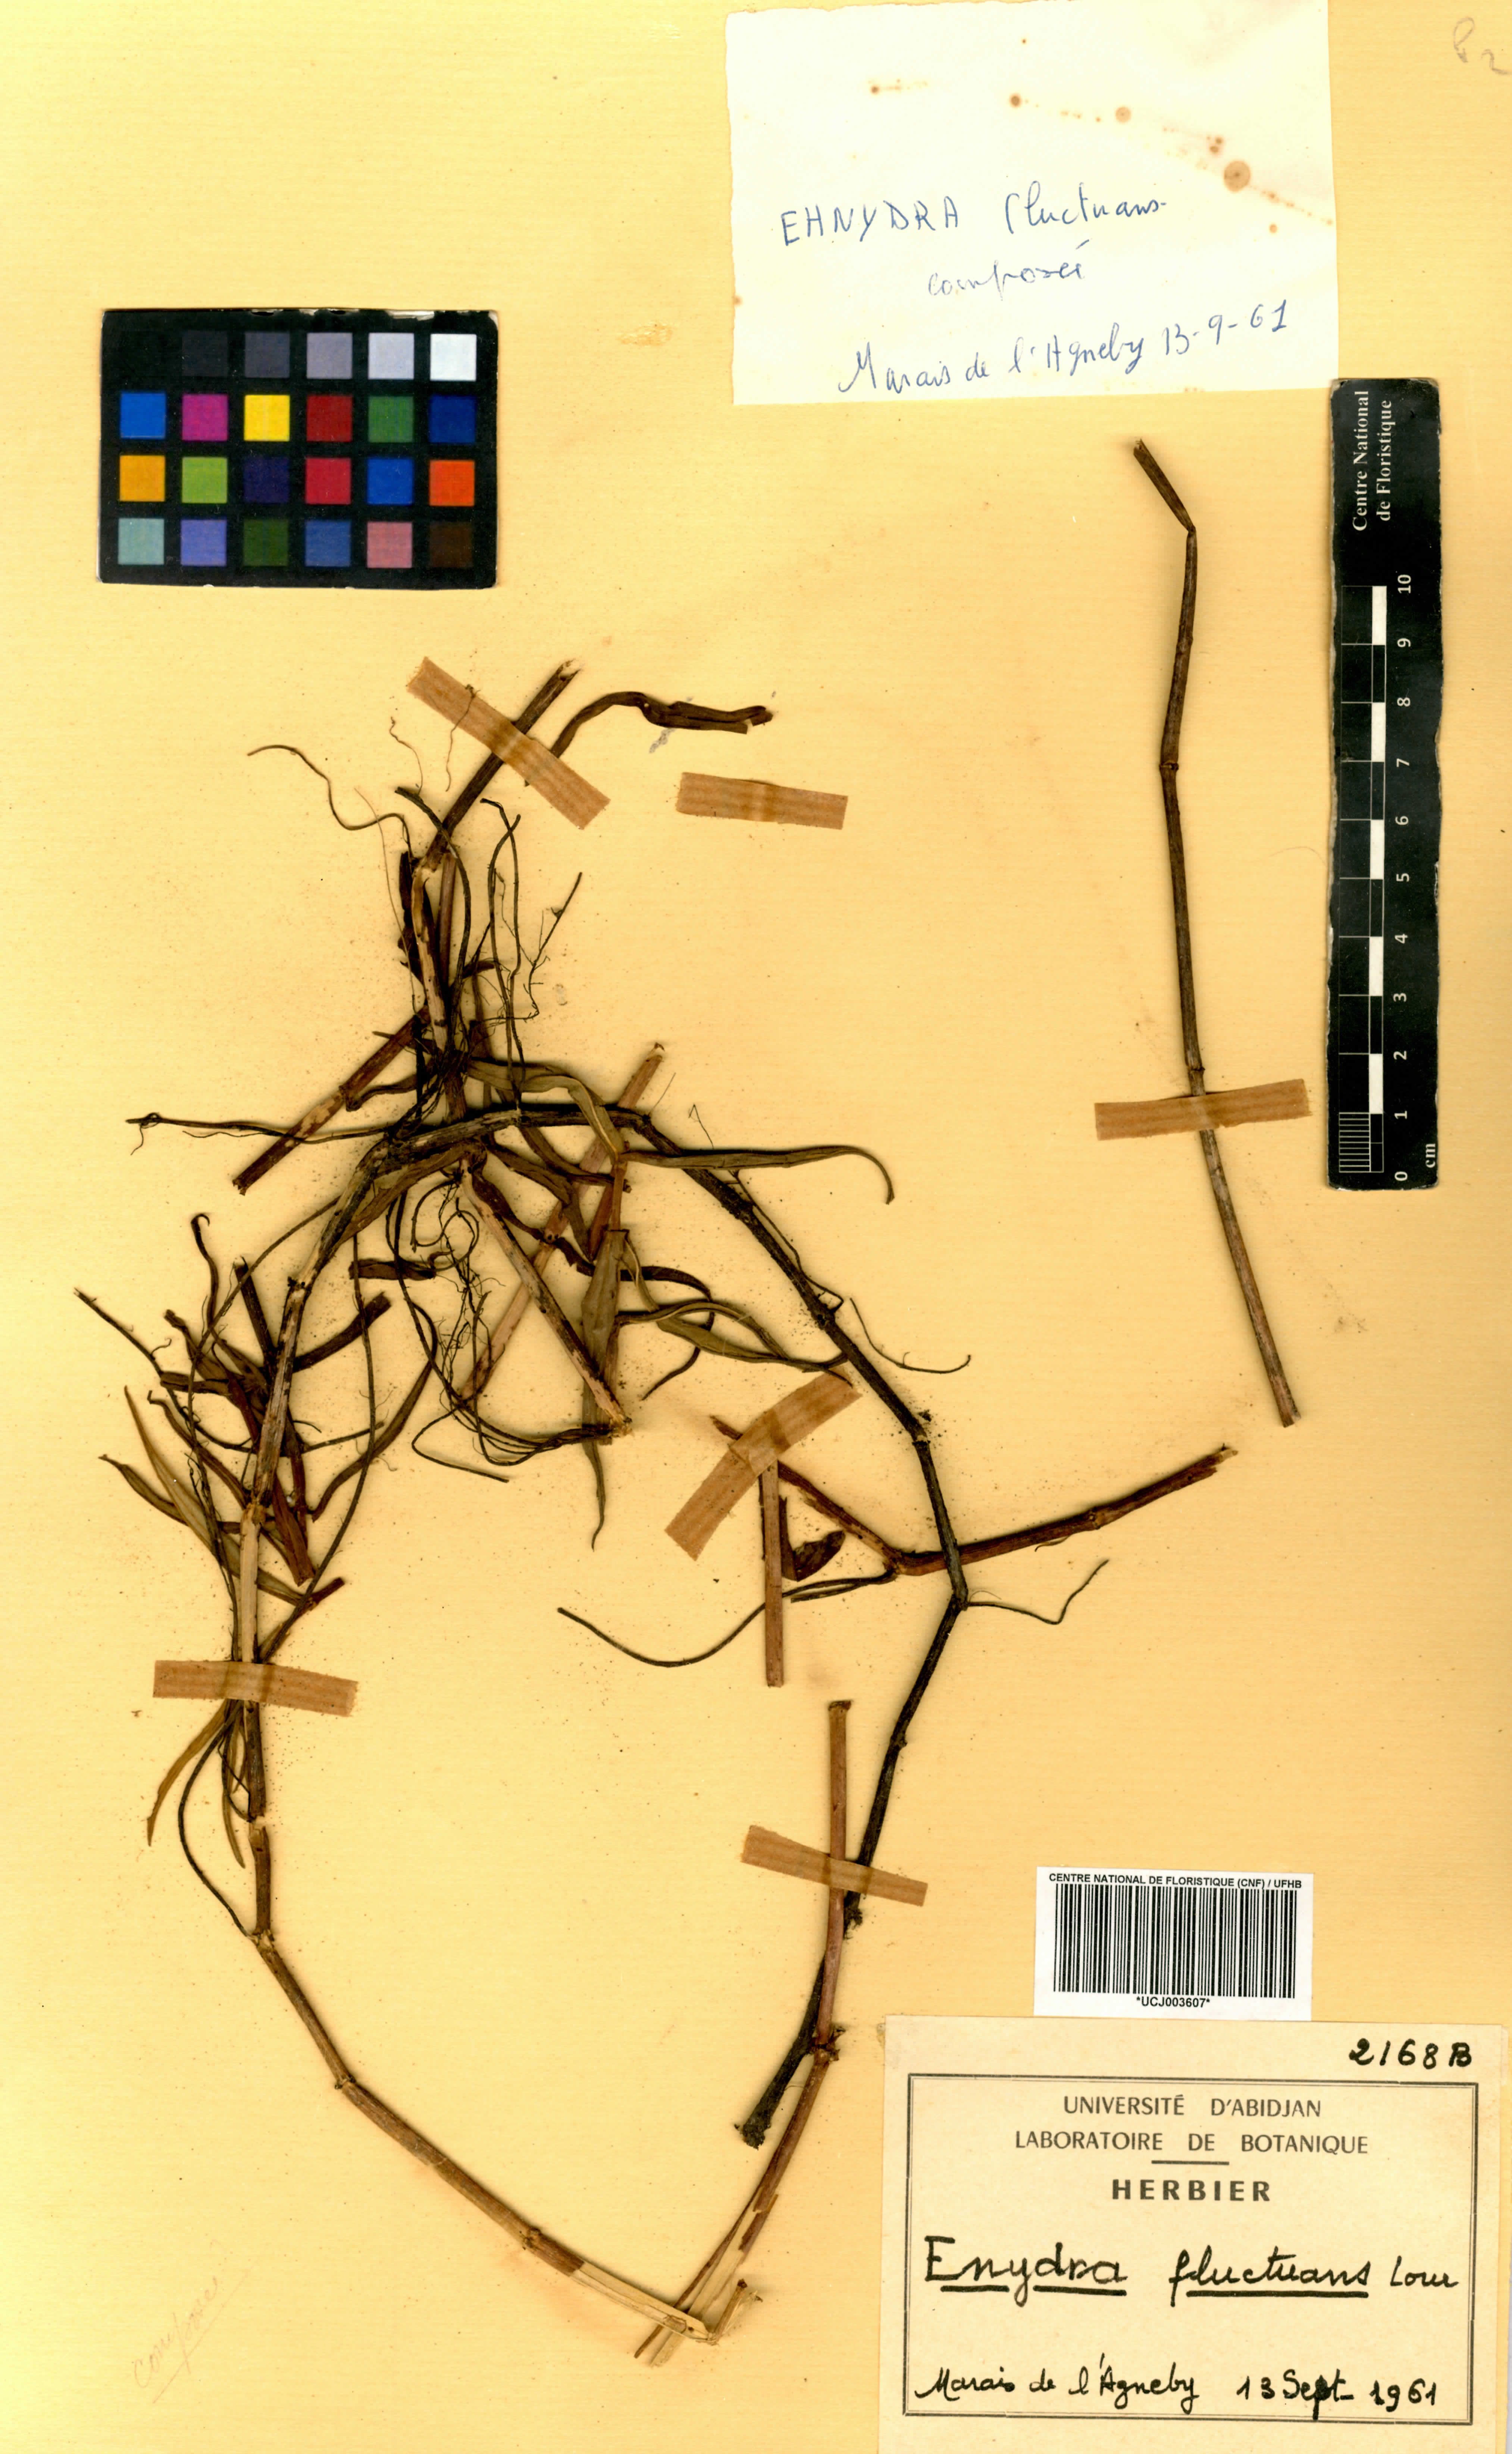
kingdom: Plantae
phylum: Tracheophyta
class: Magnoliopsida
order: Asterales
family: Asteraceae
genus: Enydra
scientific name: Enydra fluctuans
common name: Buffalo spinach
